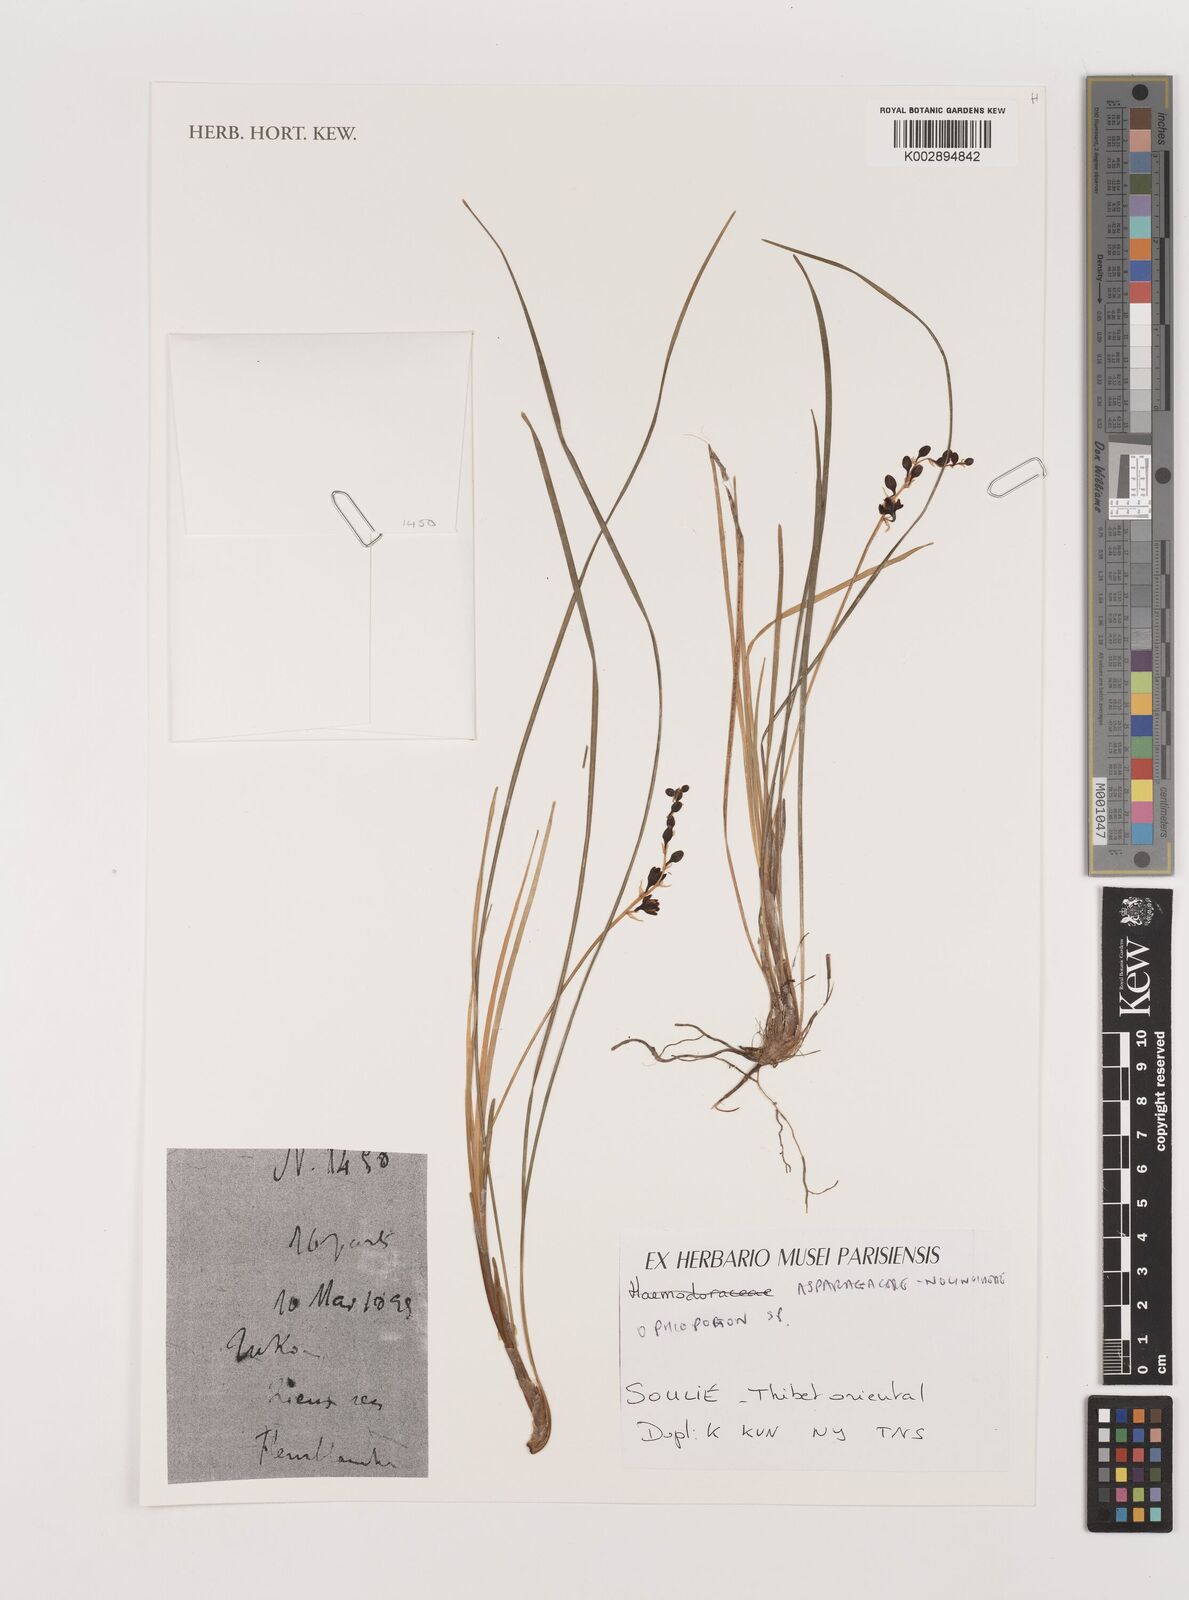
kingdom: Plantae
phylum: Tracheophyta
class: Liliopsida
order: Asparagales
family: Asparagaceae
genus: Ophiopogon
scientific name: Ophiopogon
